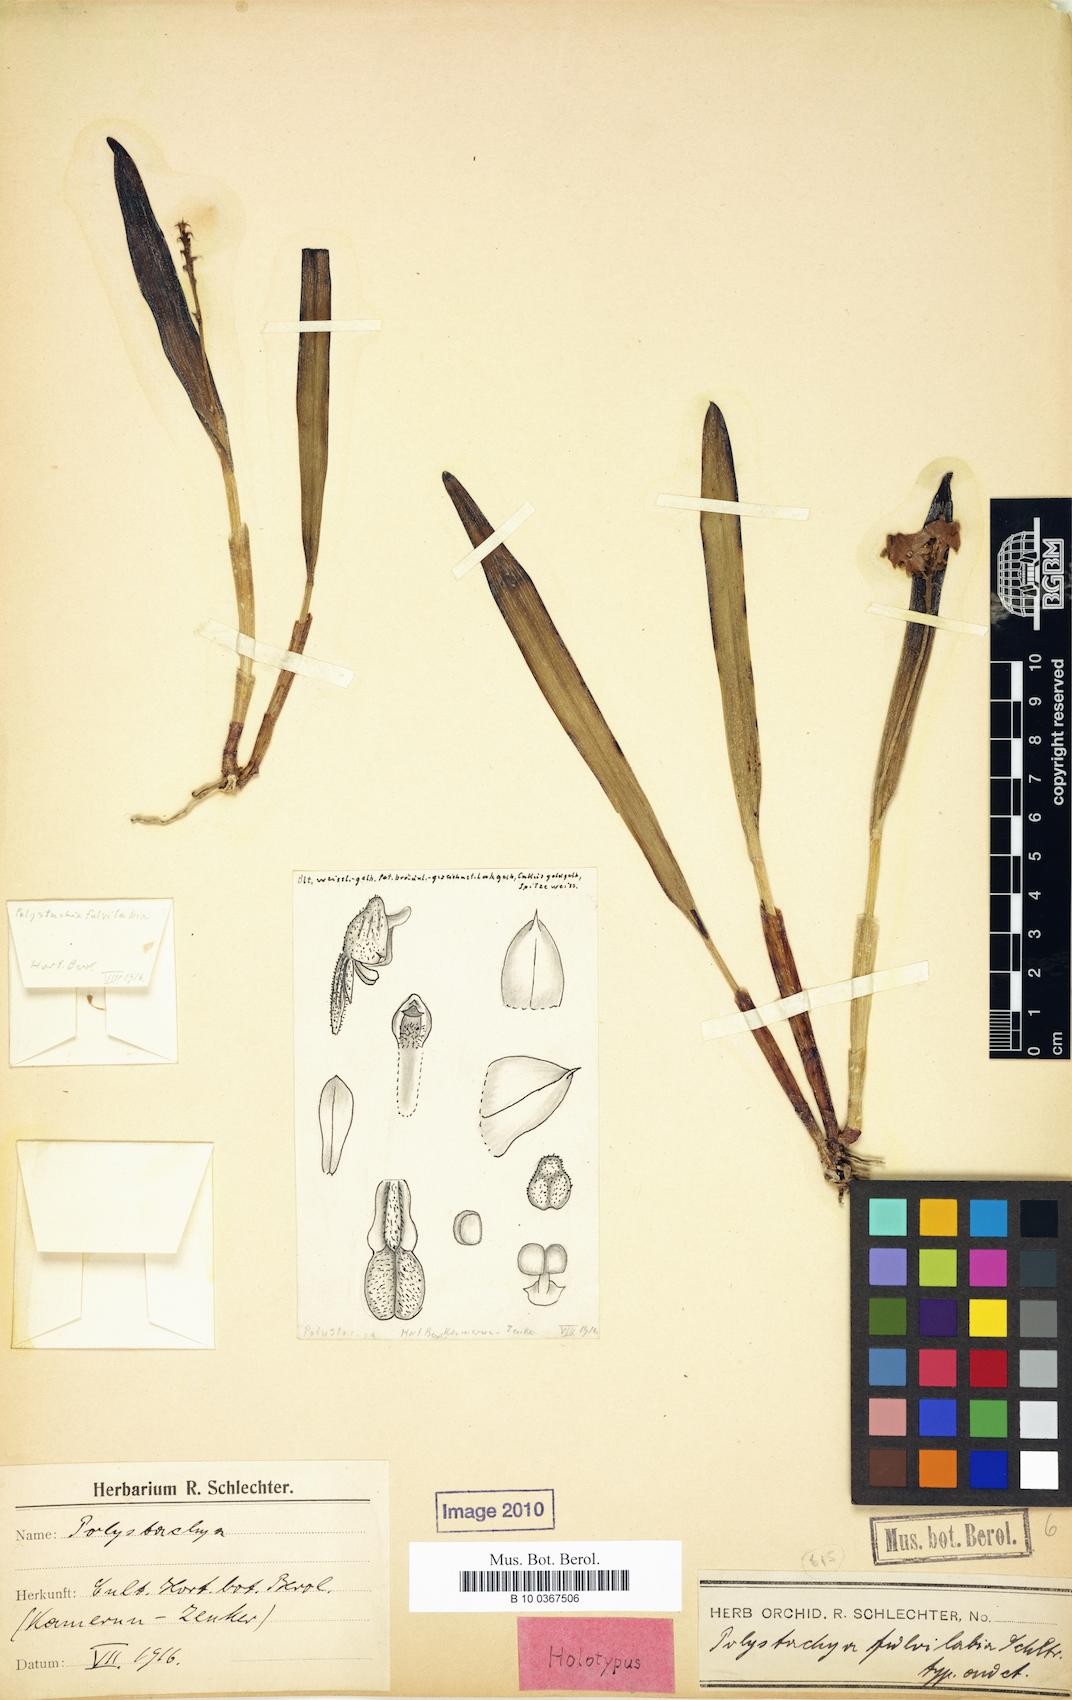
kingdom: Plantae
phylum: Tracheophyta
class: Liliopsida
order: Asparagales
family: Orchidaceae
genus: Polystachya
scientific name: Polystachya fulvilabia
